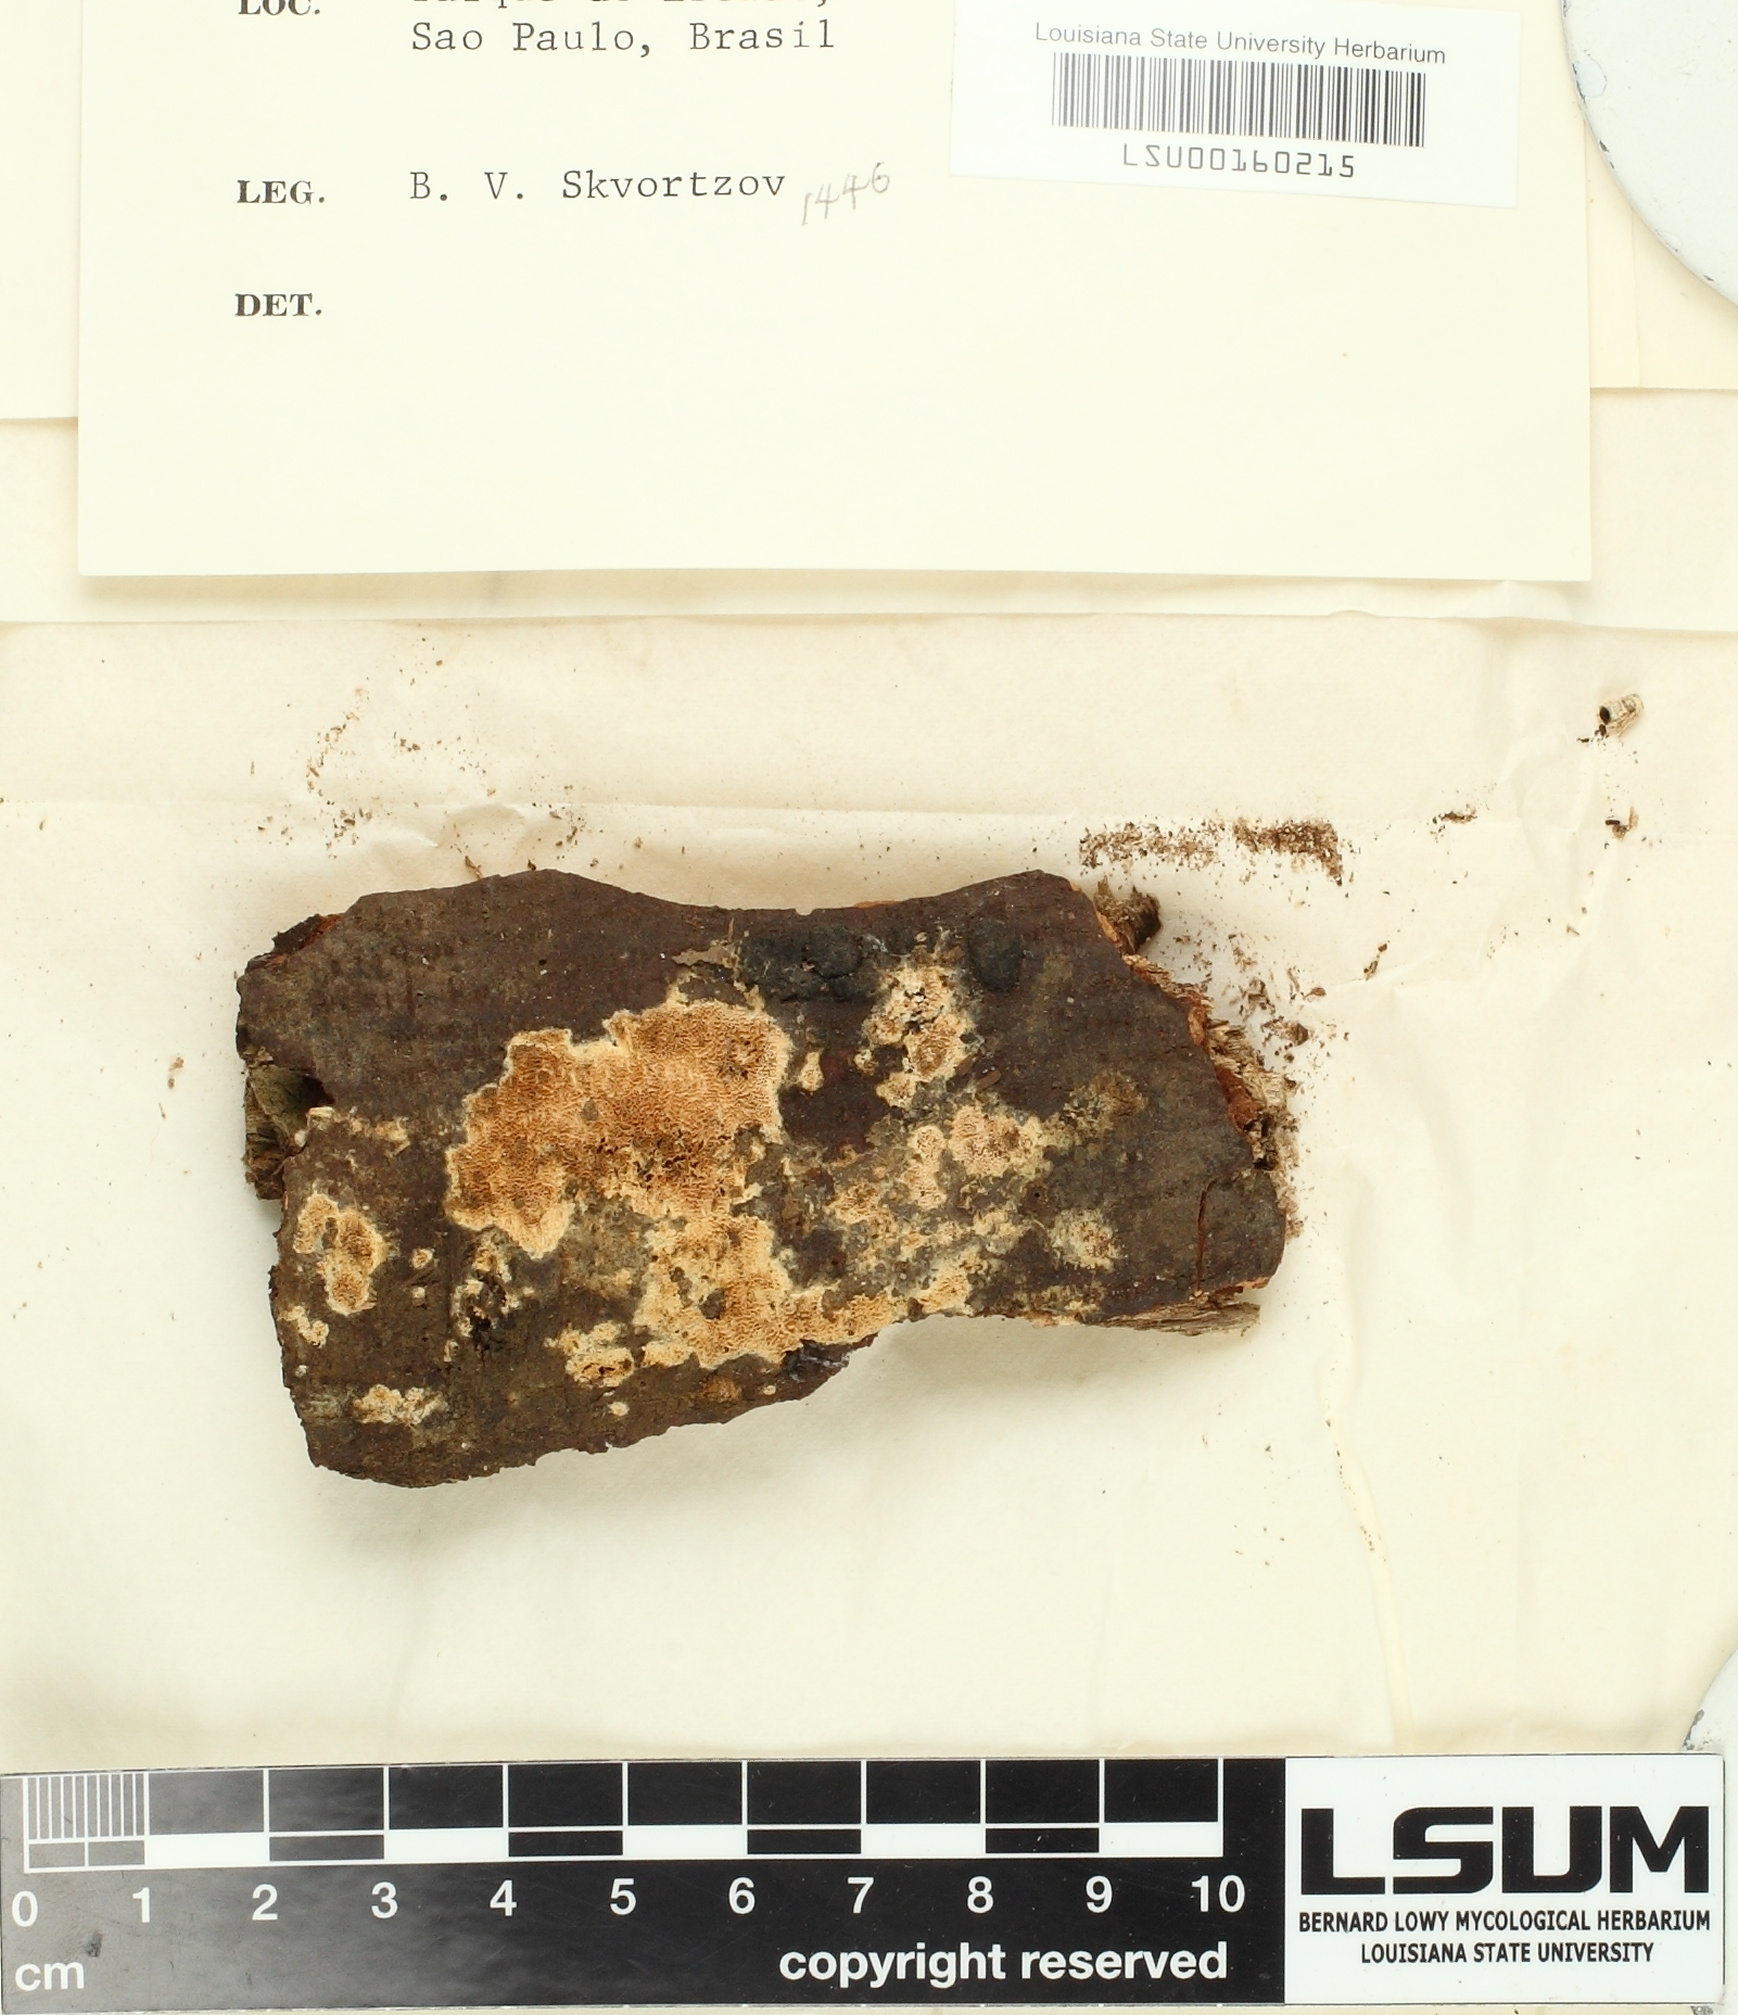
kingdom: Fungi
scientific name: Fungi
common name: Fungi
